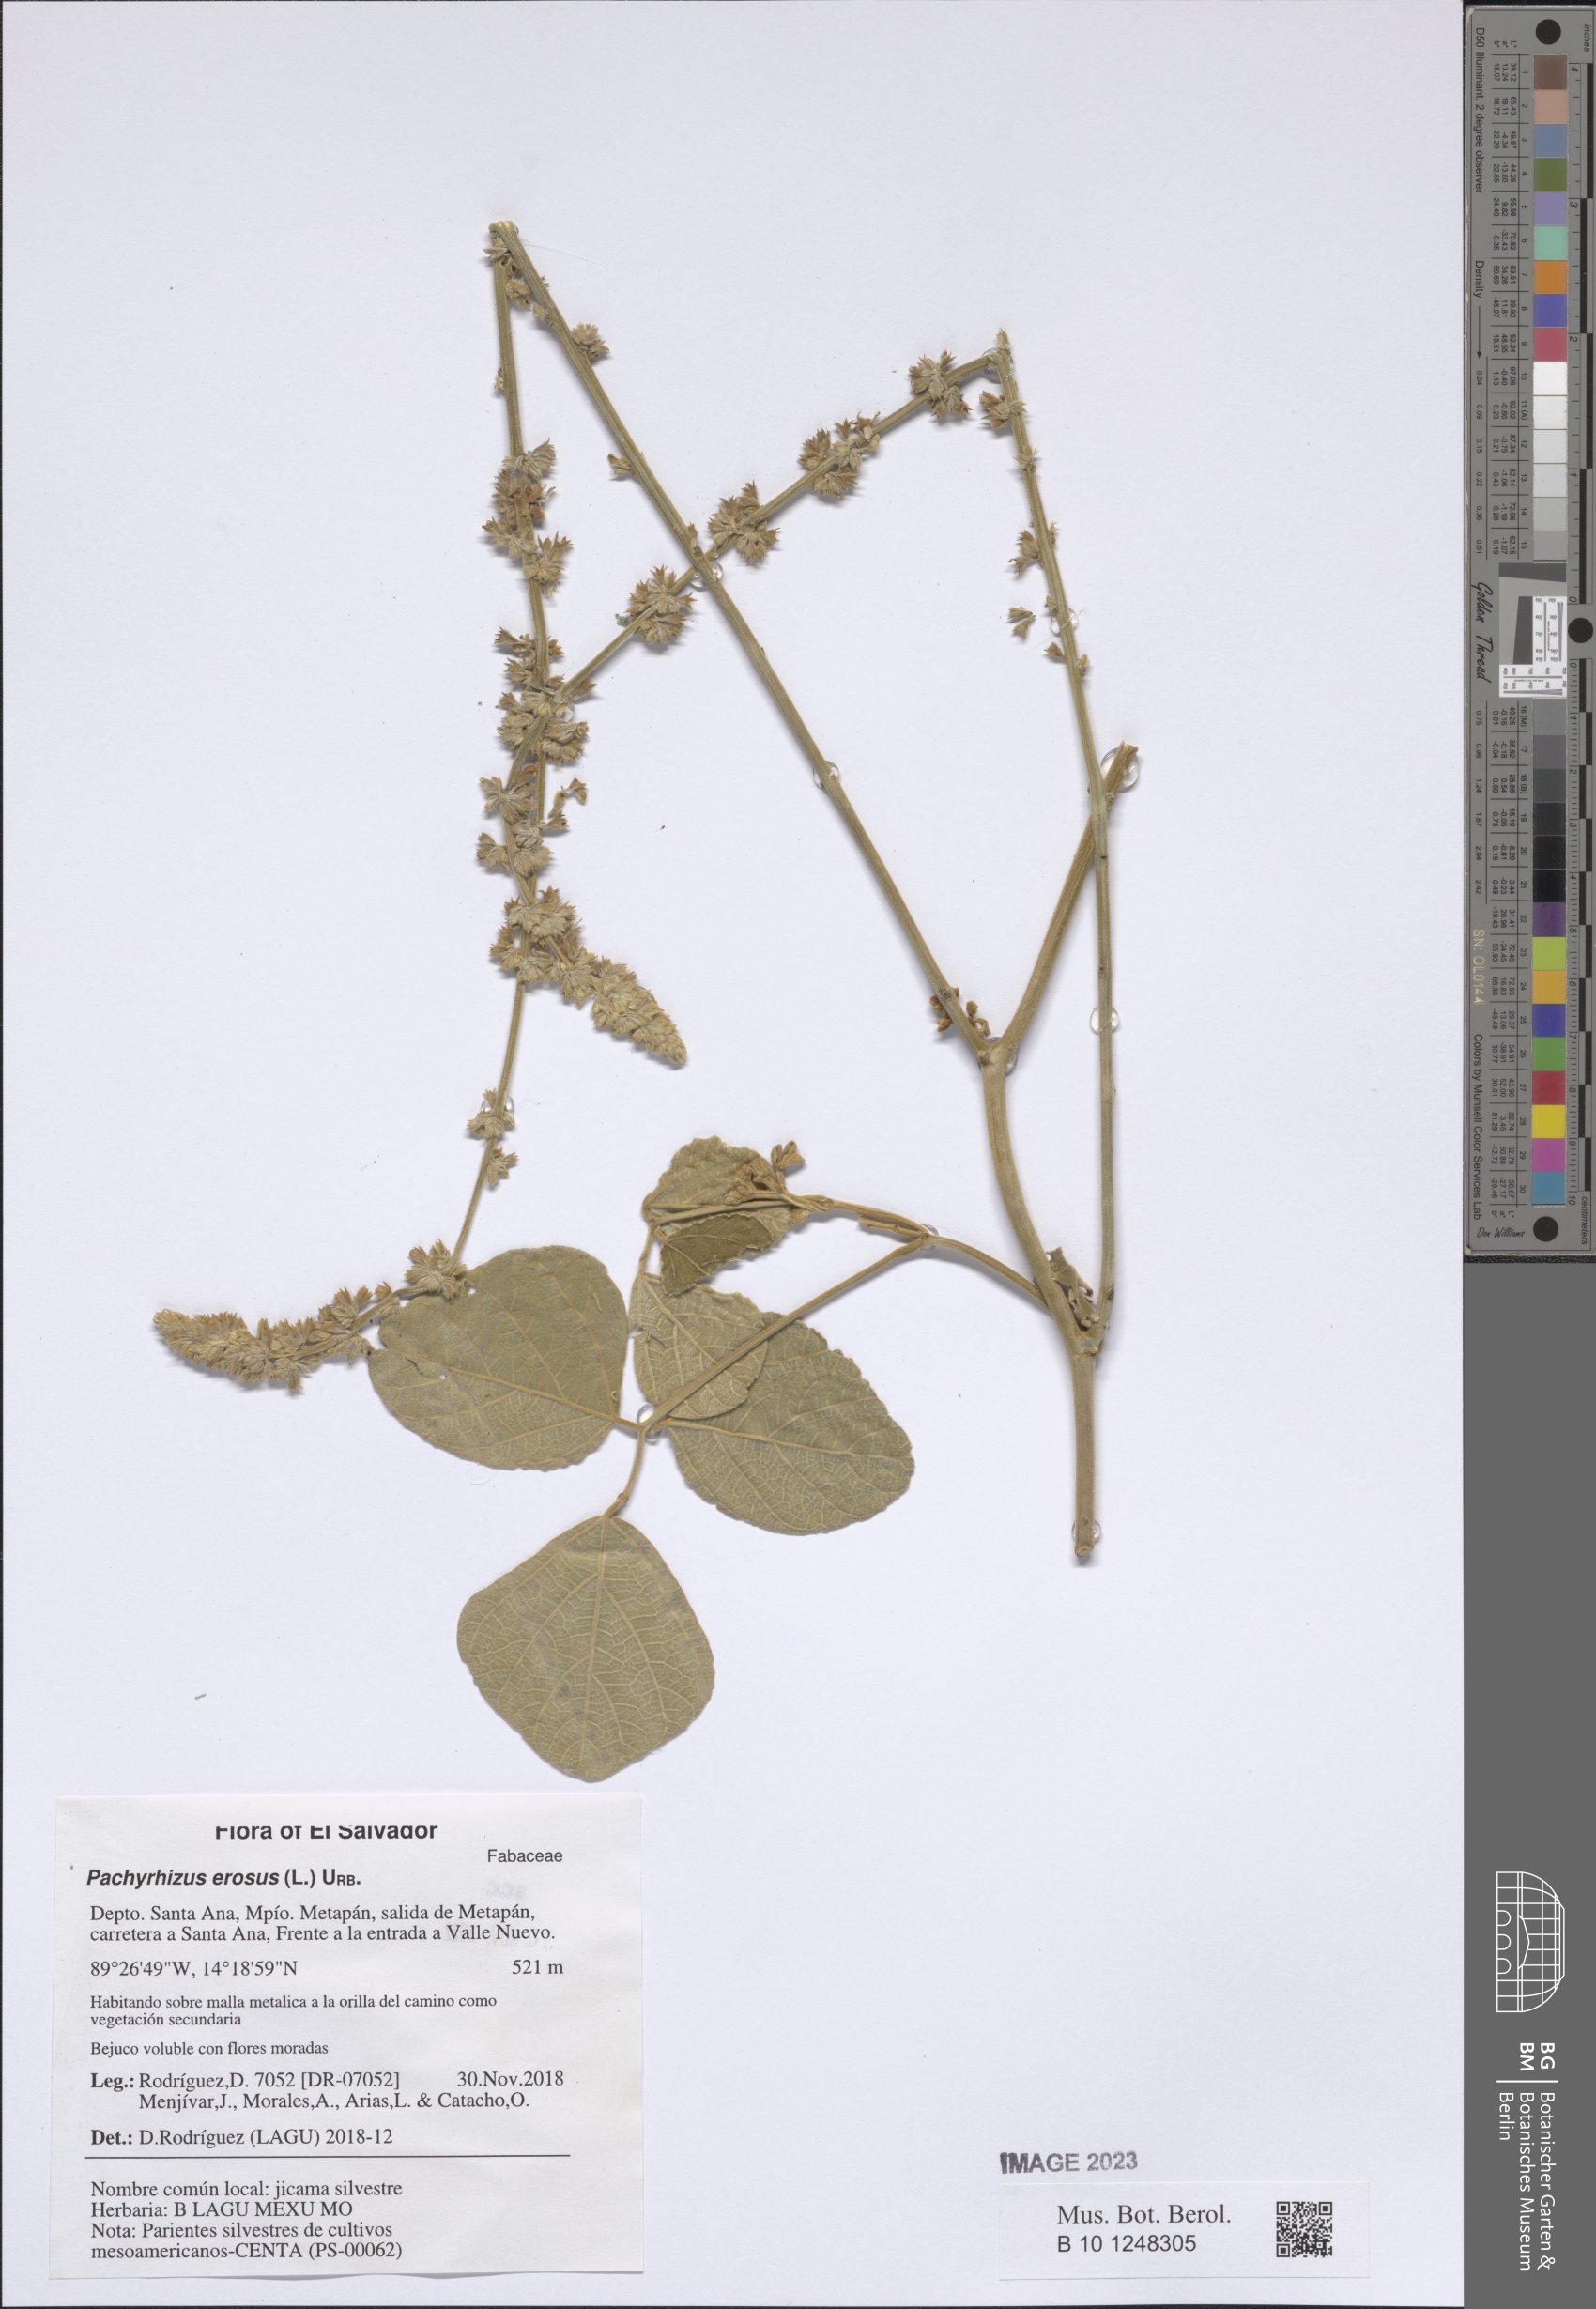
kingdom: Plantae
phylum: Tracheophyta
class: Magnoliopsida
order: Fabales
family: Fabaceae
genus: Pachyrhizus
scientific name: Pachyrhizus erosus
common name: Yam bean
